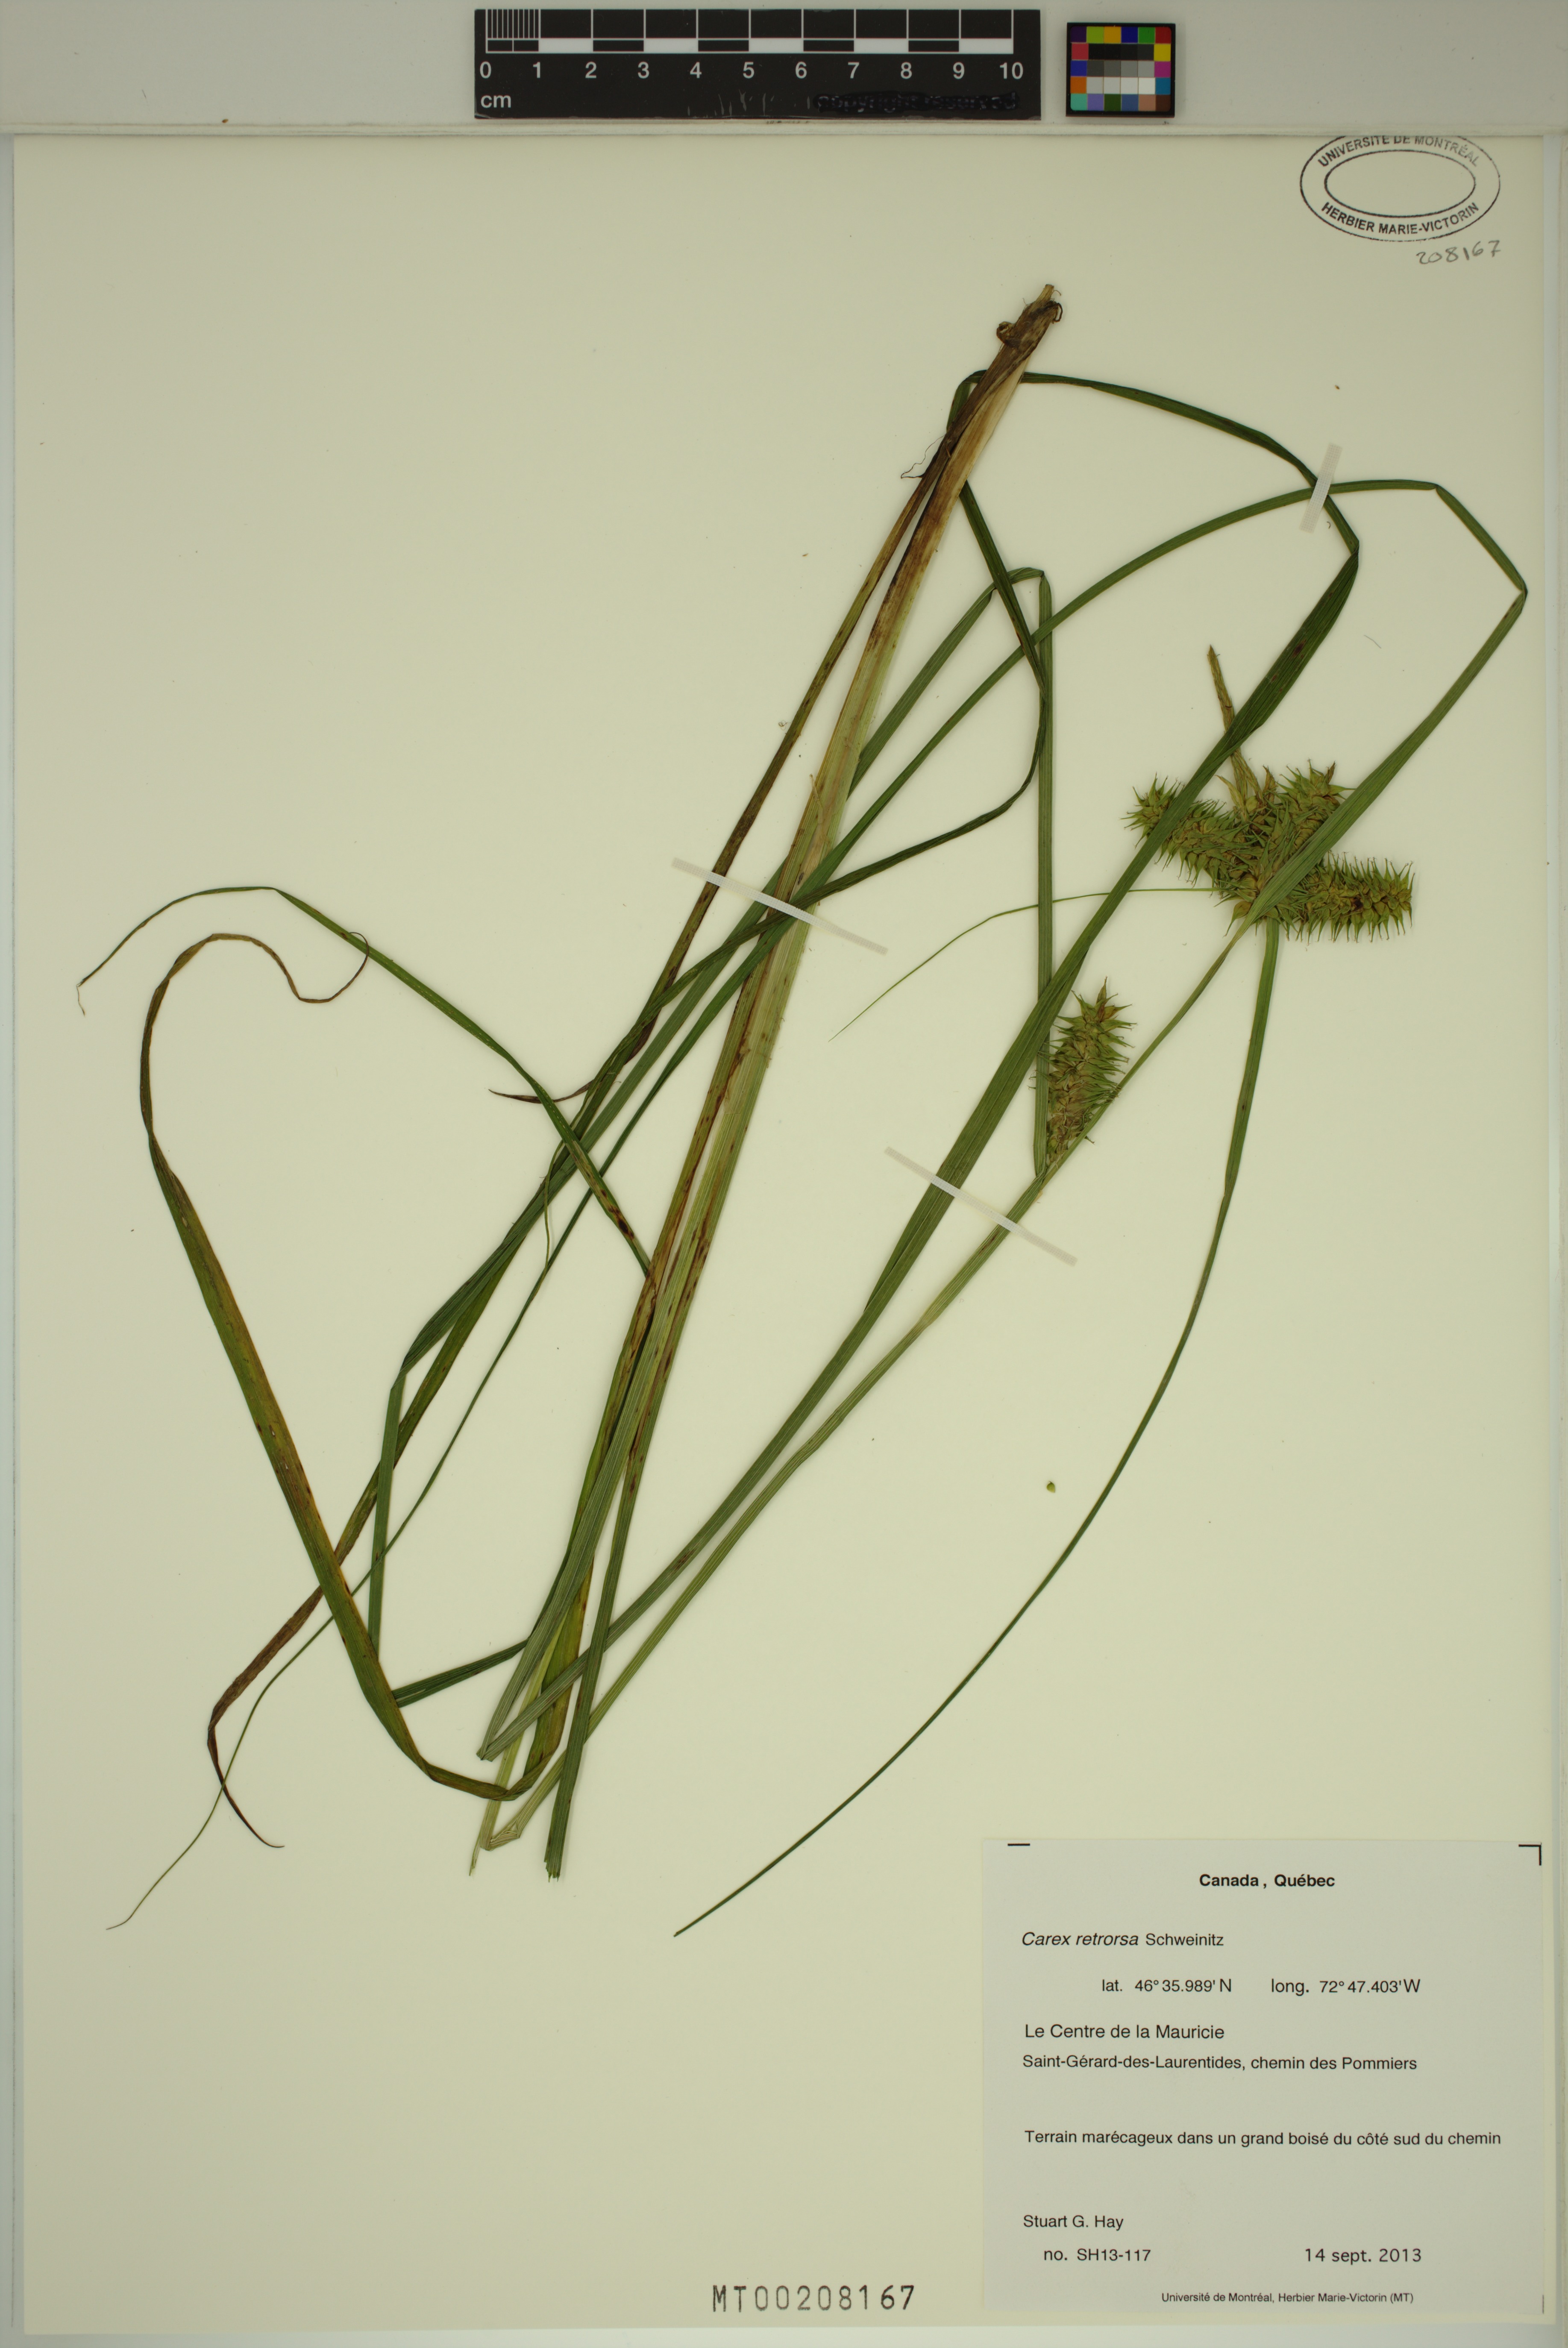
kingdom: Plantae
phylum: Tracheophyta
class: Liliopsida
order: Poales
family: Cyperaceae
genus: Carex
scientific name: Carex retrorsa
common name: Knot-sheath sedge
